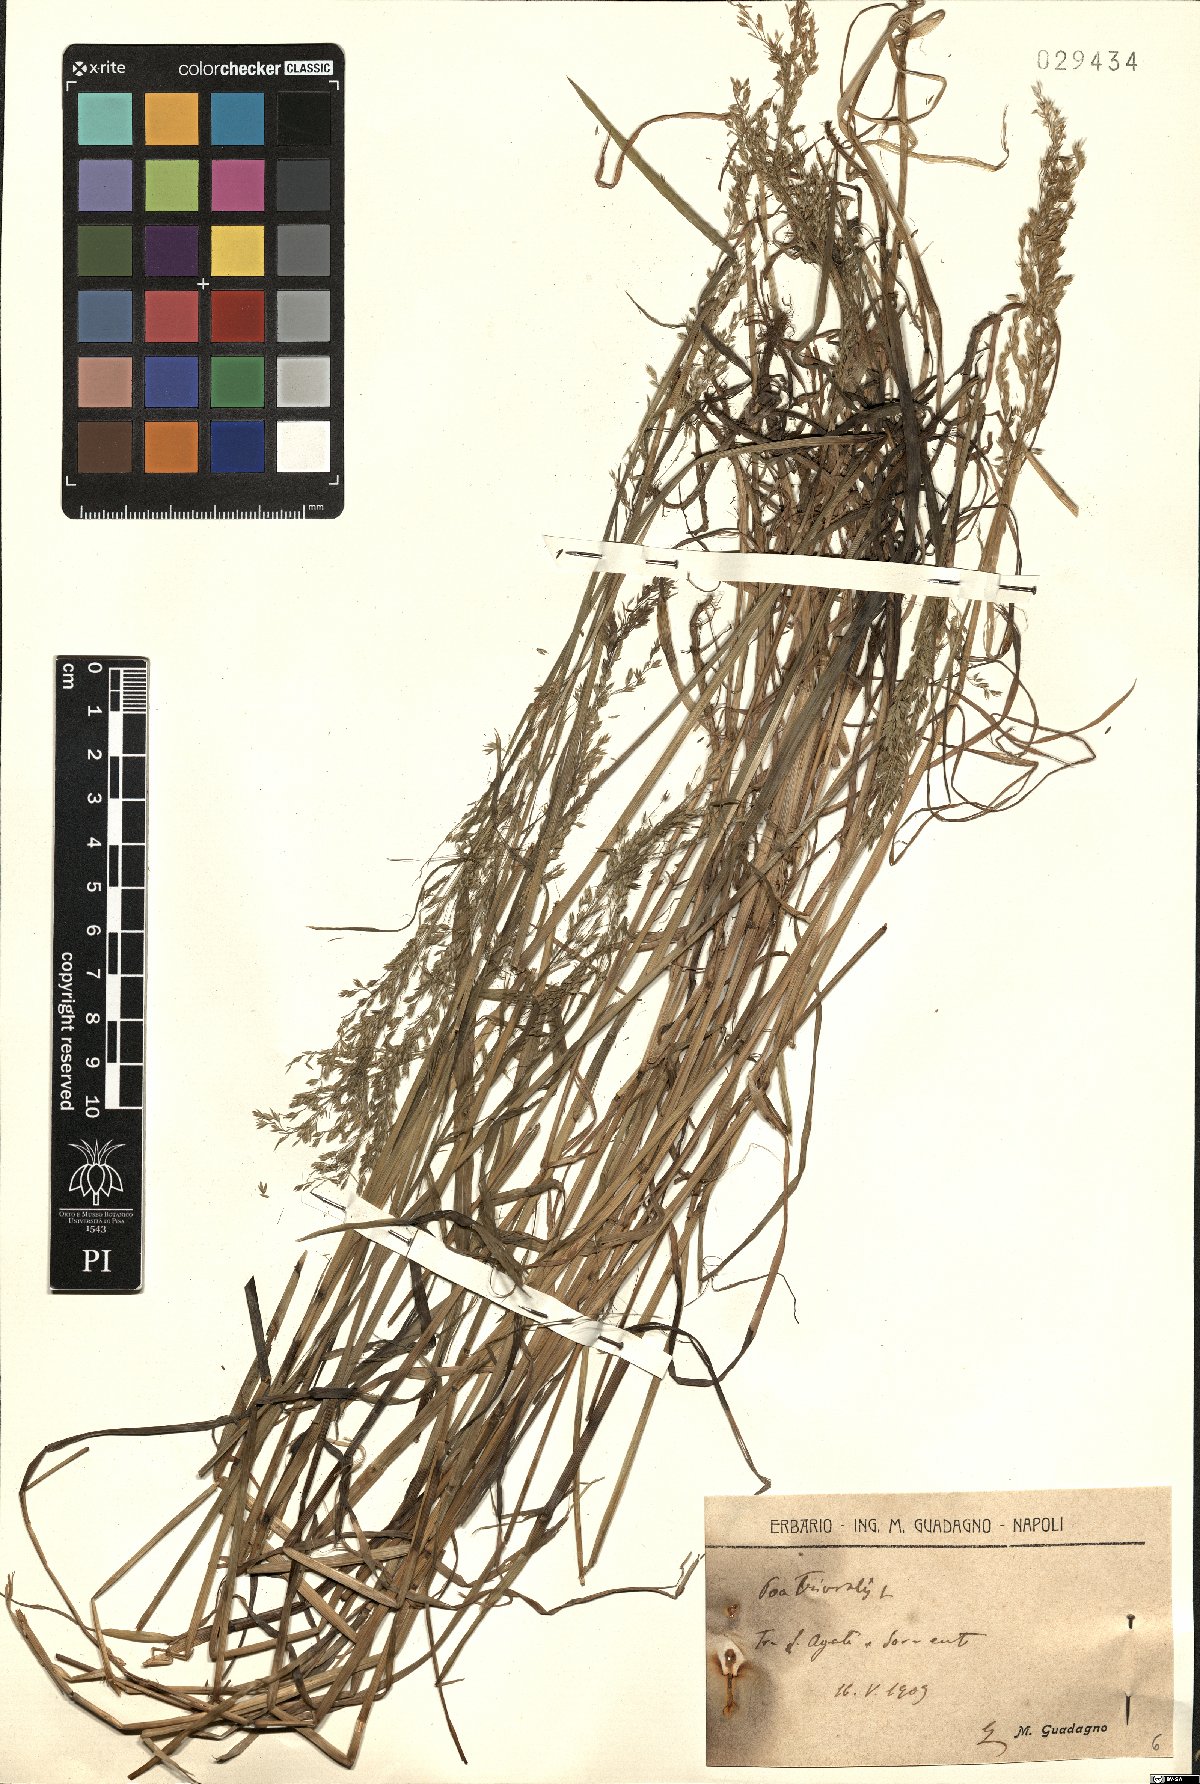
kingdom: Plantae
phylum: Tracheophyta
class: Liliopsida
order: Poales
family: Poaceae
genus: Poa
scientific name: Poa trivialis
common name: Rough bluegrass
